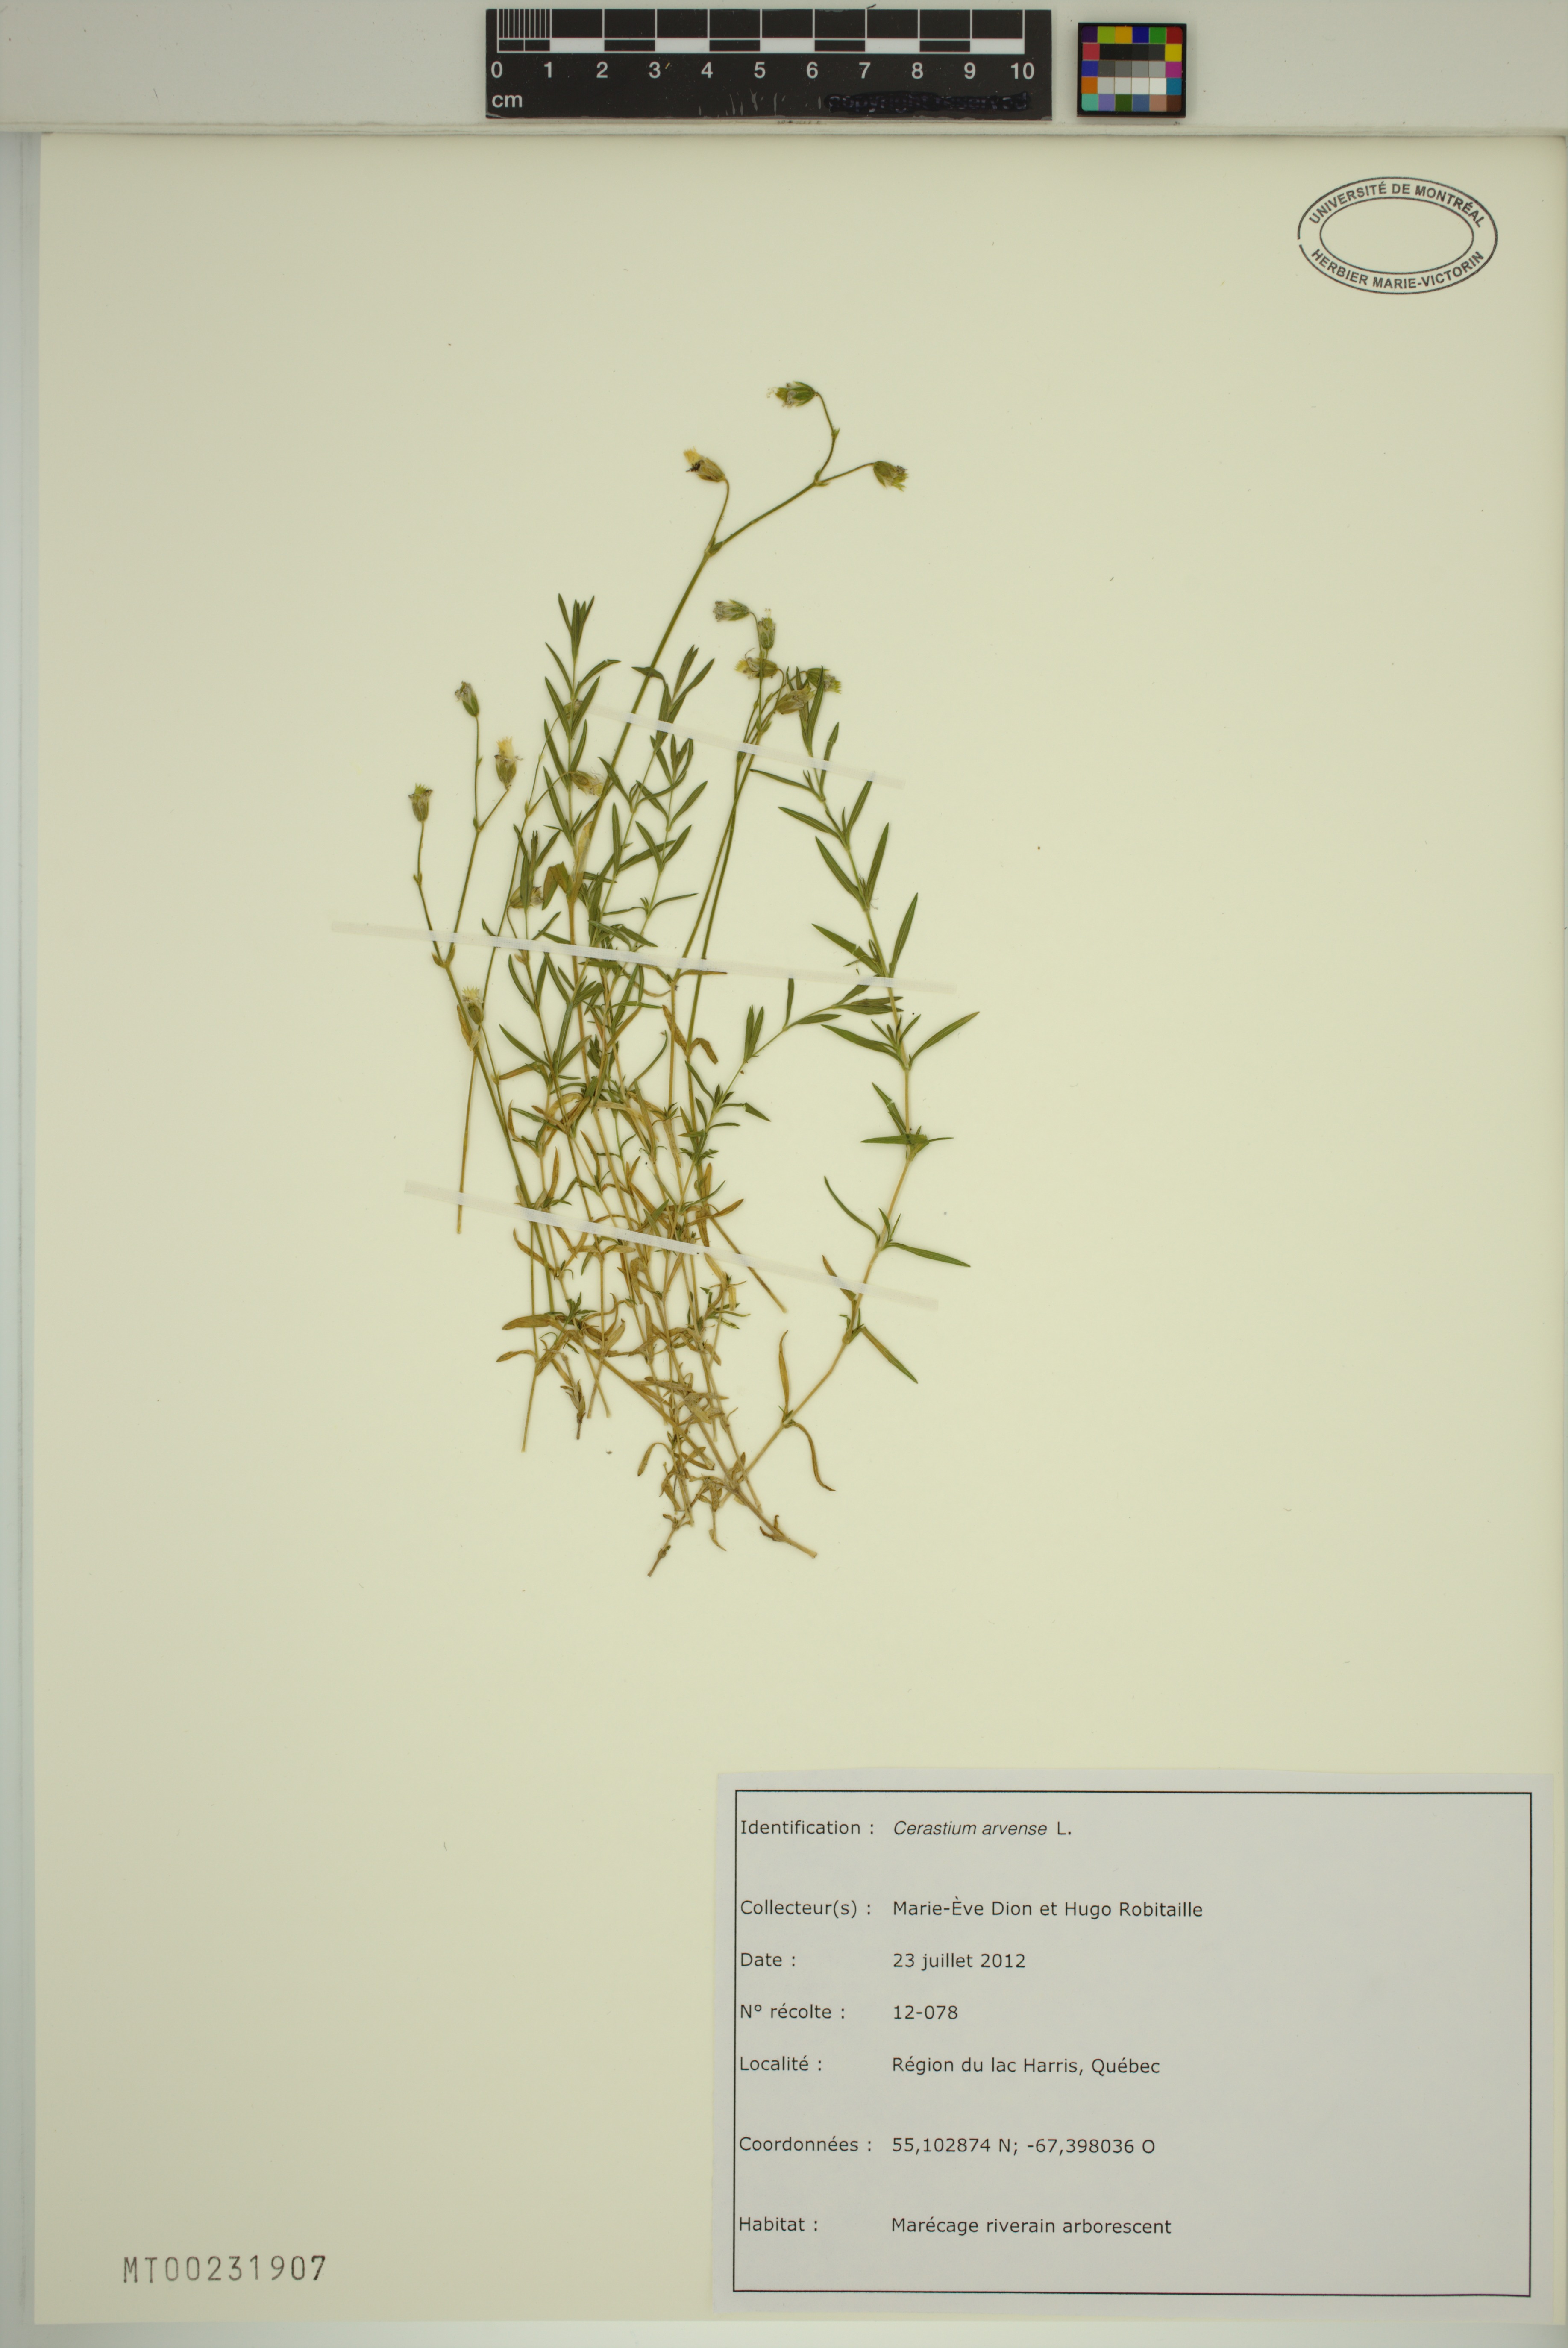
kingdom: Plantae
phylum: Tracheophyta
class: Magnoliopsida
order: Caryophyllales
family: Caryophyllaceae
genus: Cerastium
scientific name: Cerastium arvense
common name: Field mouse-ear
